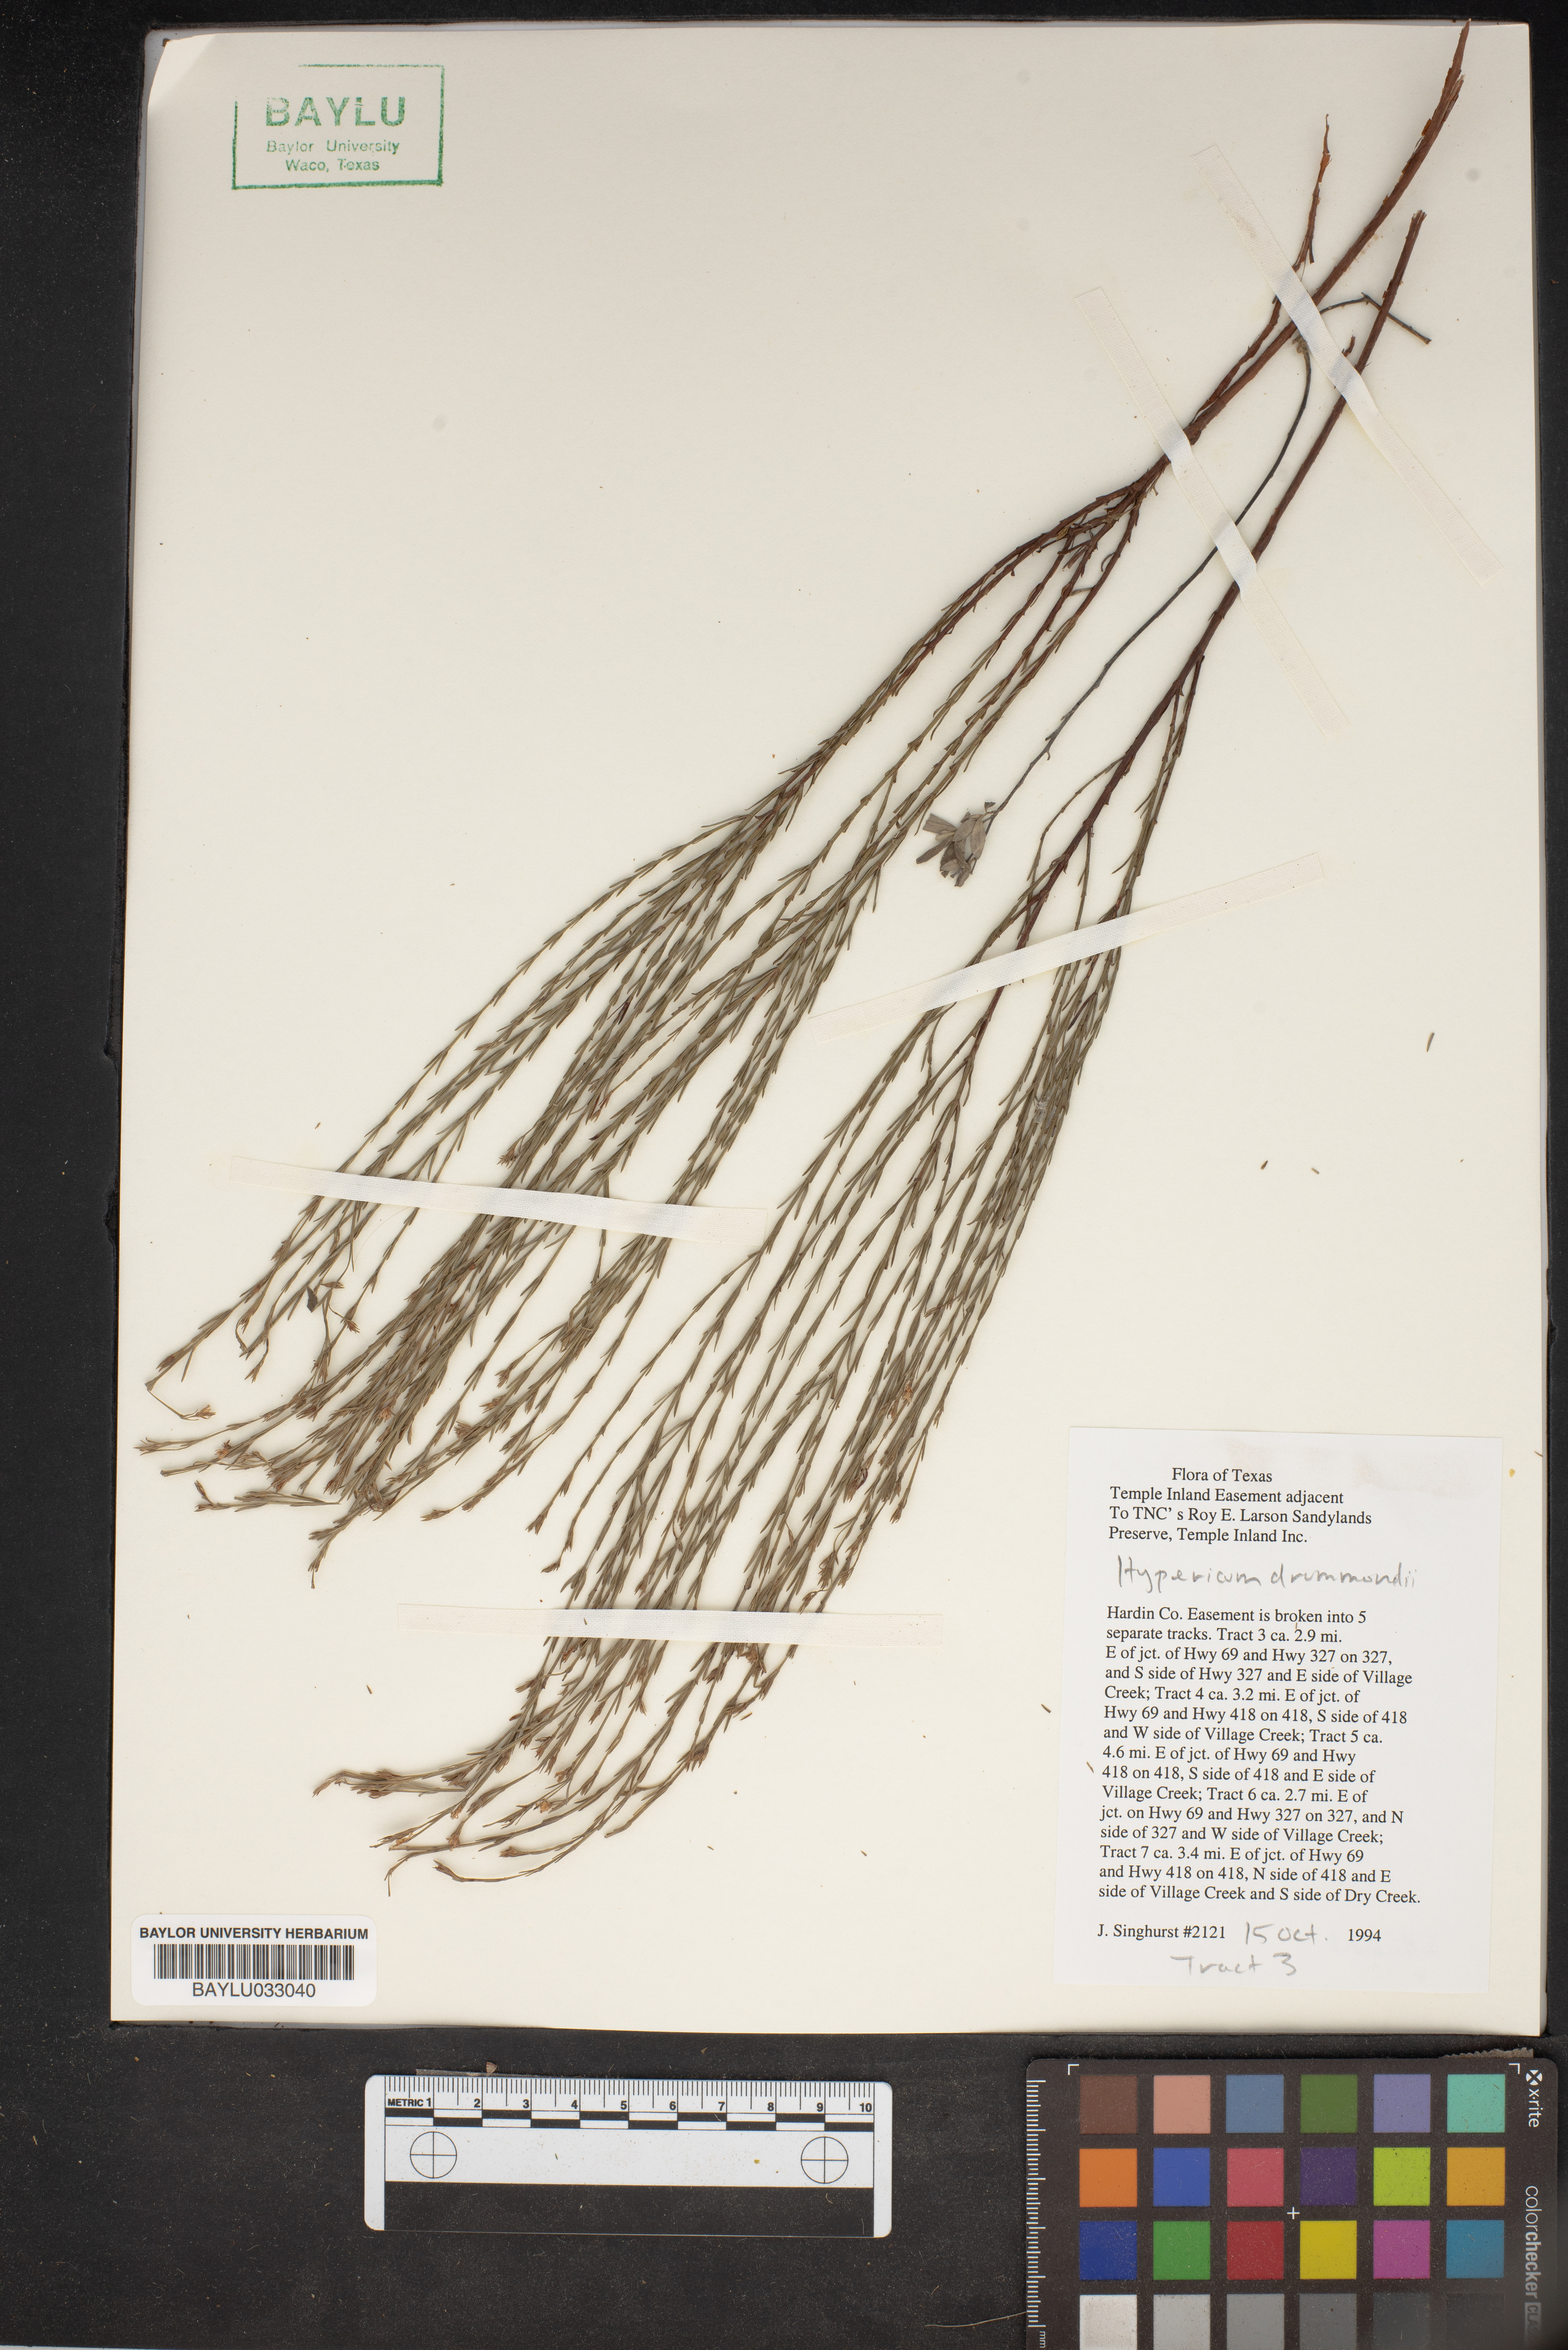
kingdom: Plantae
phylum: Tracheophyta
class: Magnoliopsida
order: Malpighiales
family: Hypericaceae
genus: Hypericum
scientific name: Hypericum drummondii
